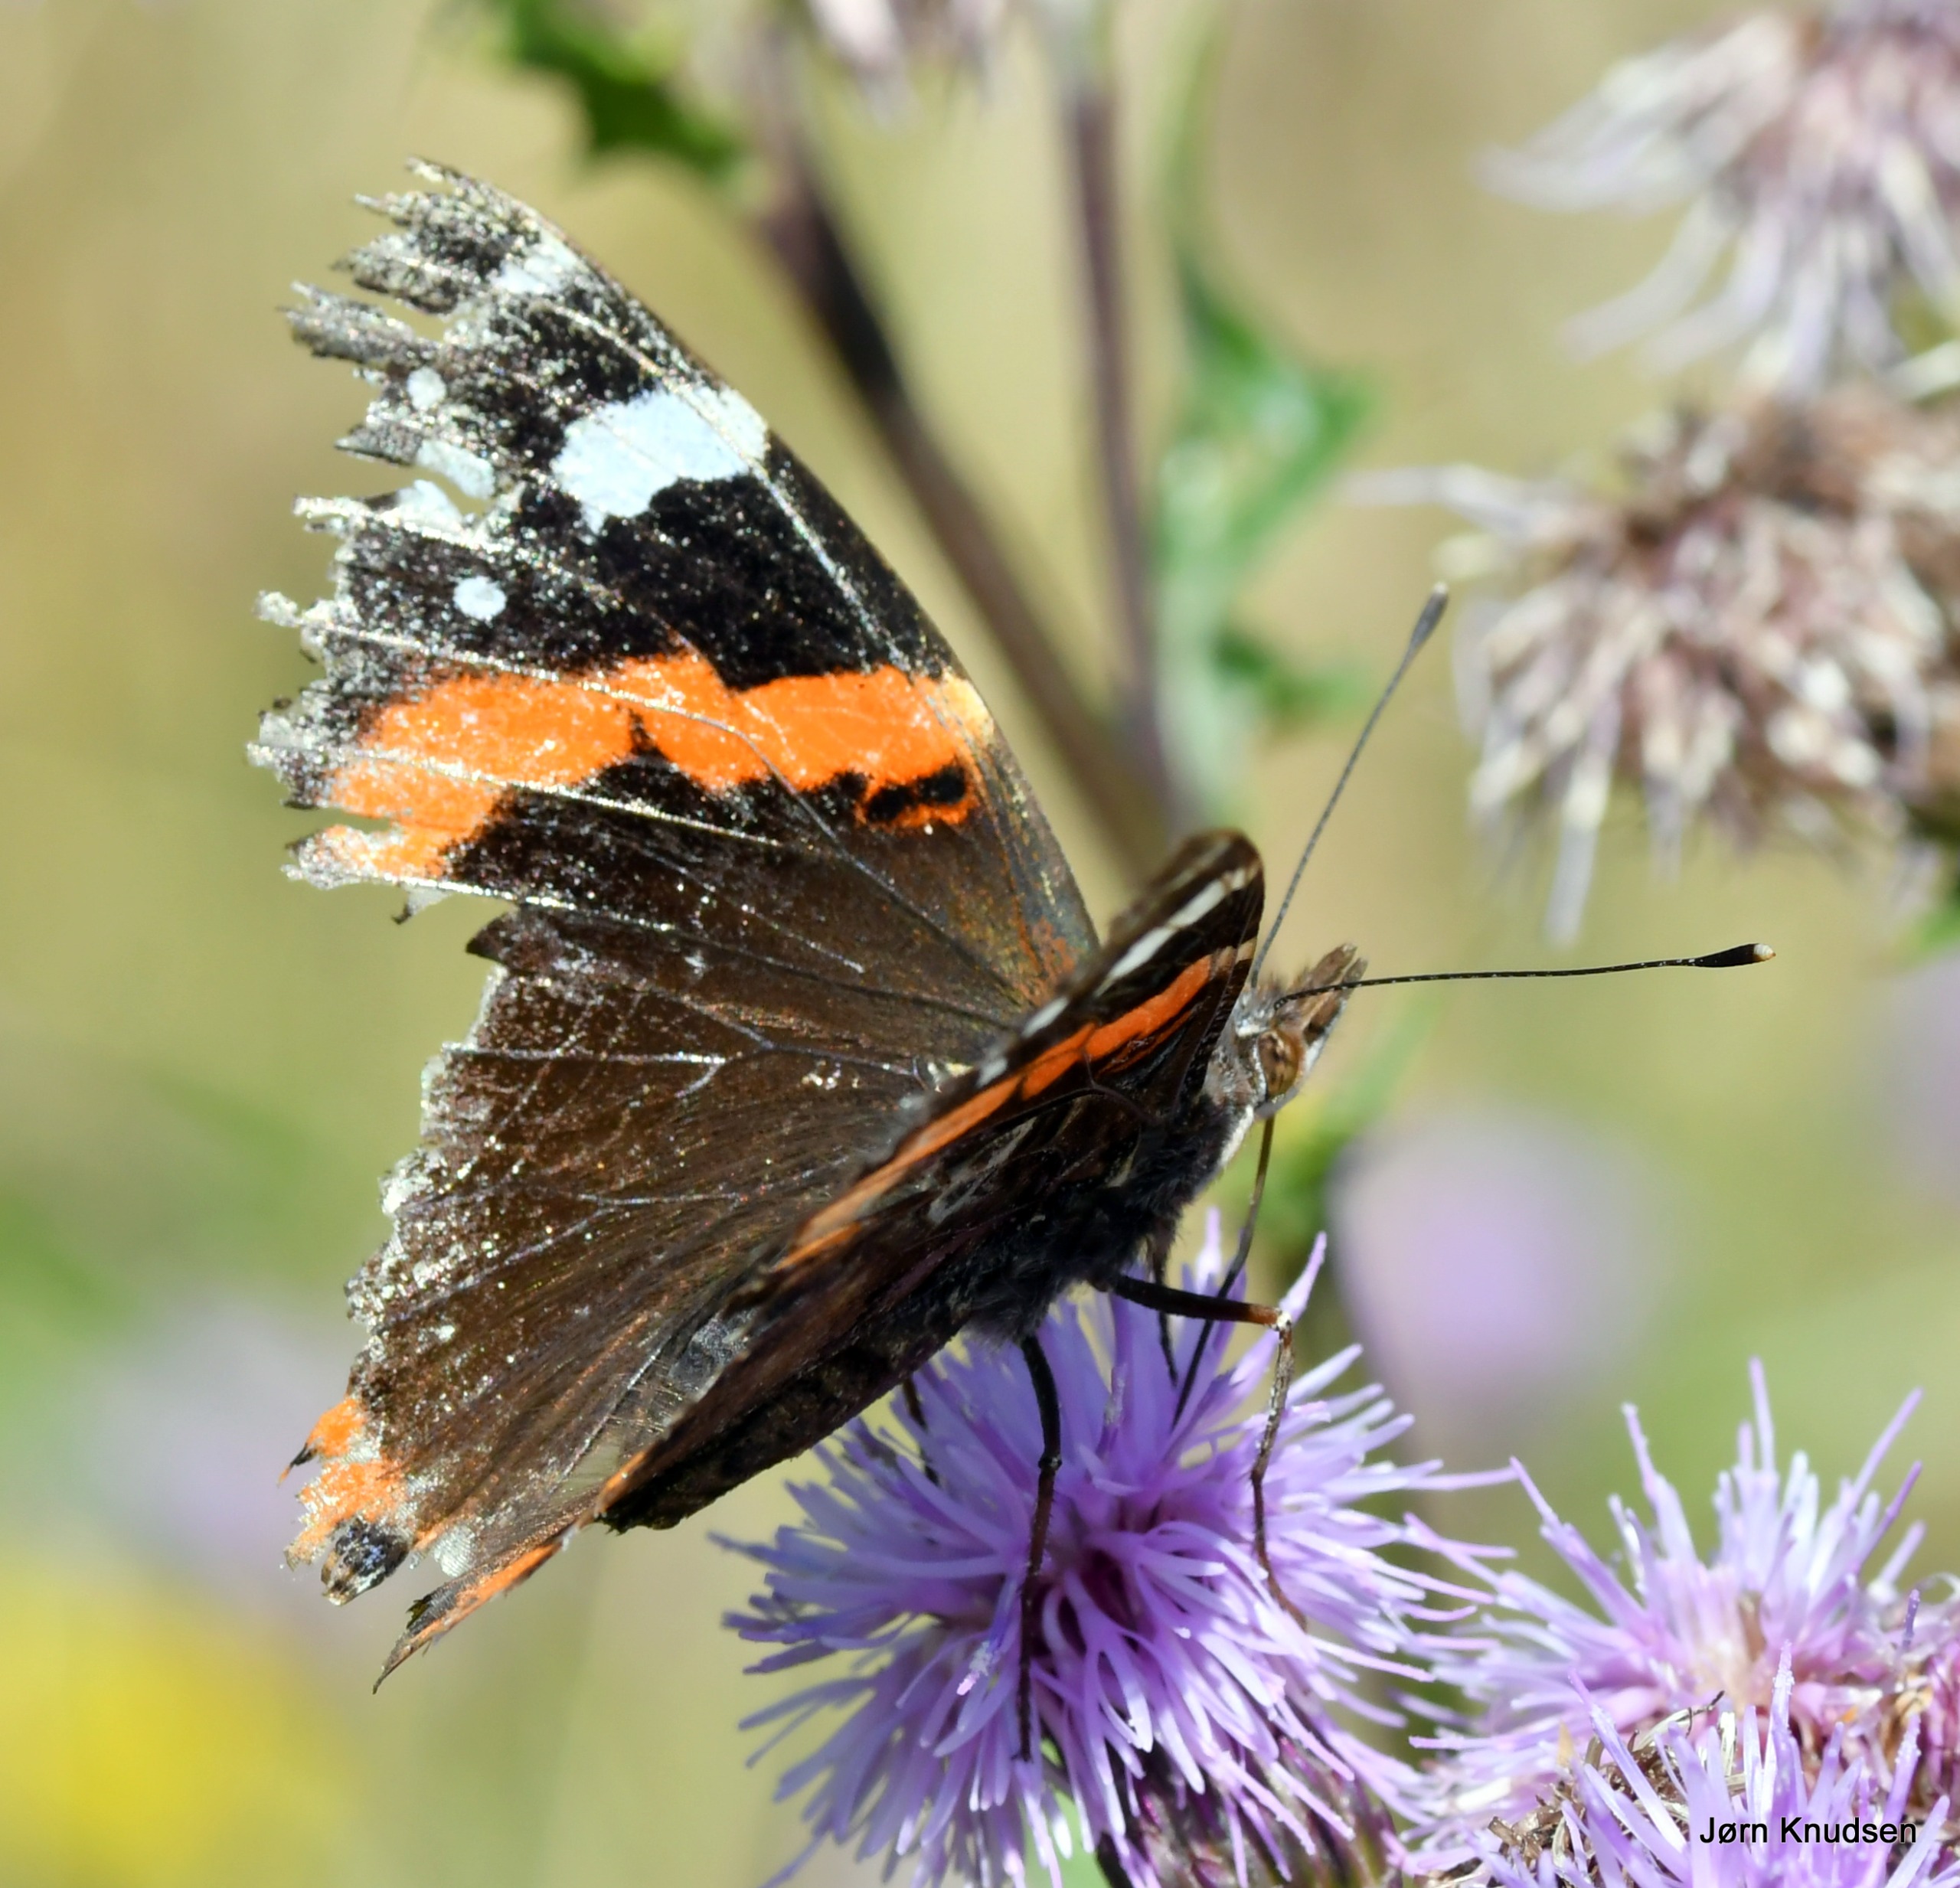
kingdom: Animalia
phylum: Arthropoda
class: Insecta
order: Lepidoptera
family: Nymphalidae
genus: Vanessa
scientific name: Vanessa atalanta
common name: Admiral
